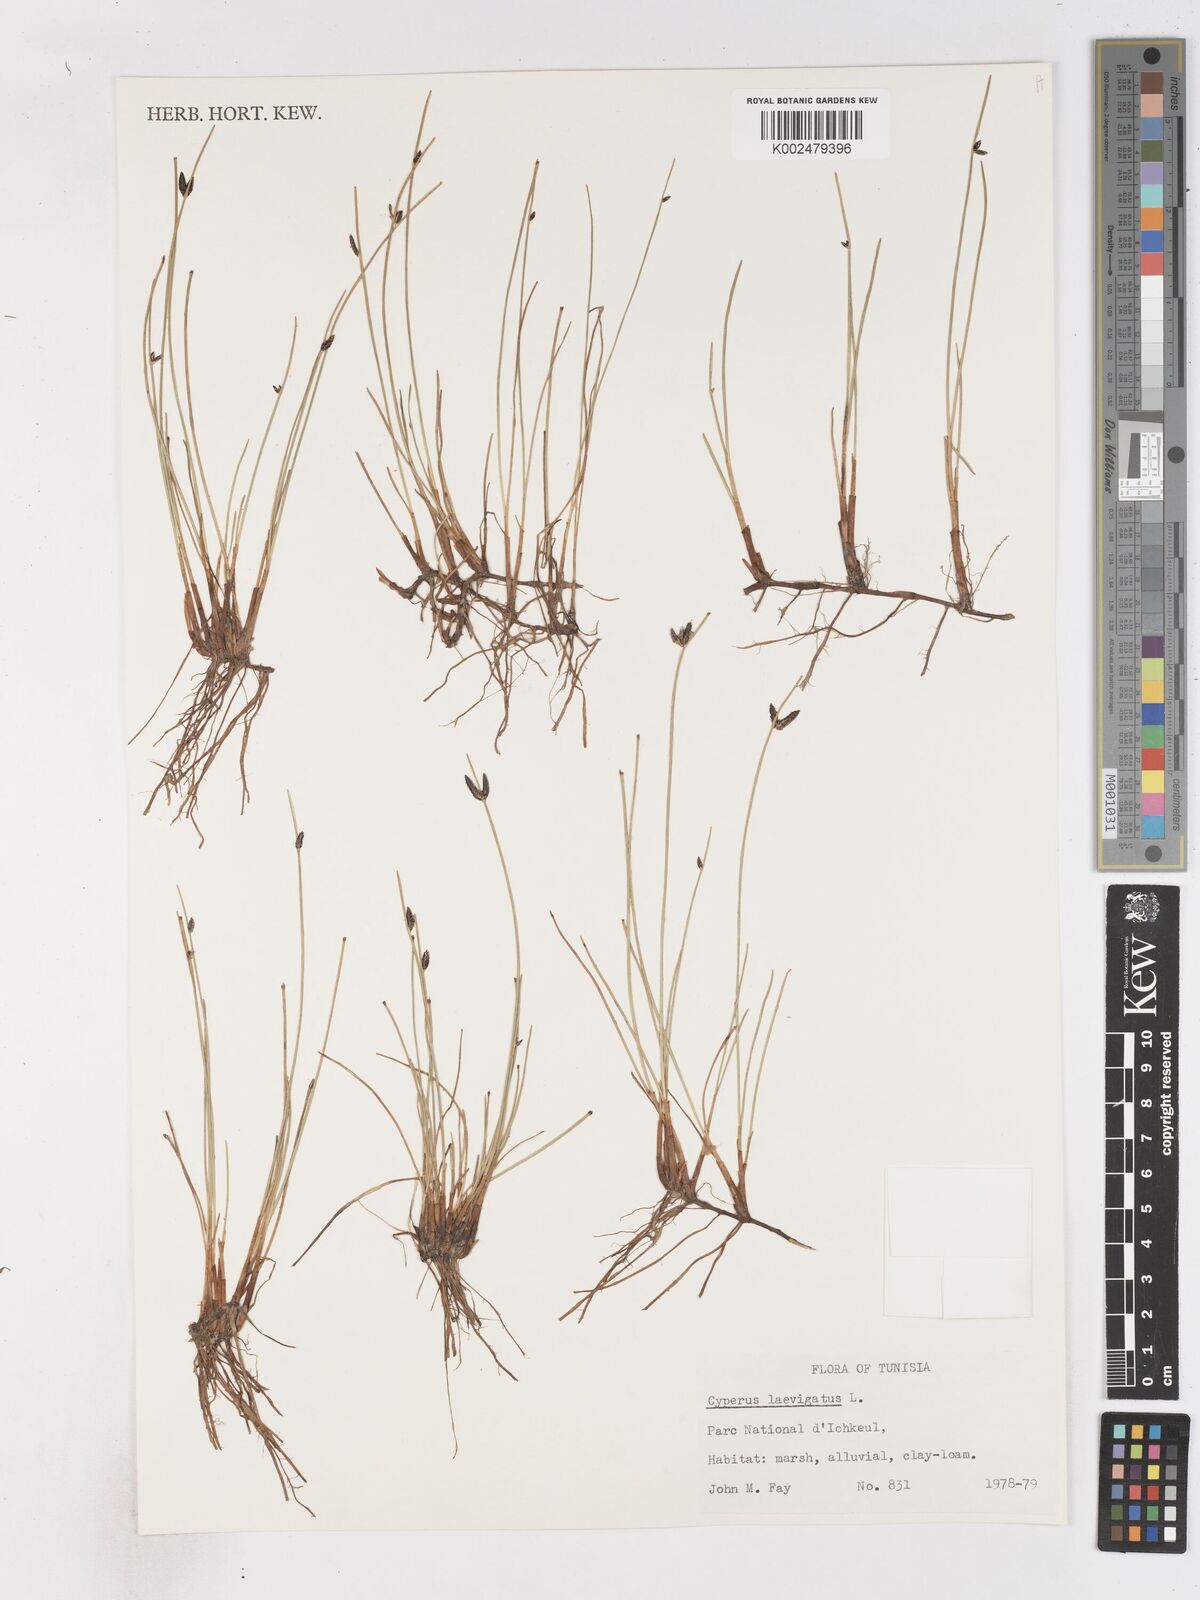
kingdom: Plantae
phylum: Tracheophyta
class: Liliopsida
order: Poales
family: Cyperaceae
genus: Cyperus
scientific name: Cyperus laevigatus
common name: Smooth flat sedge
